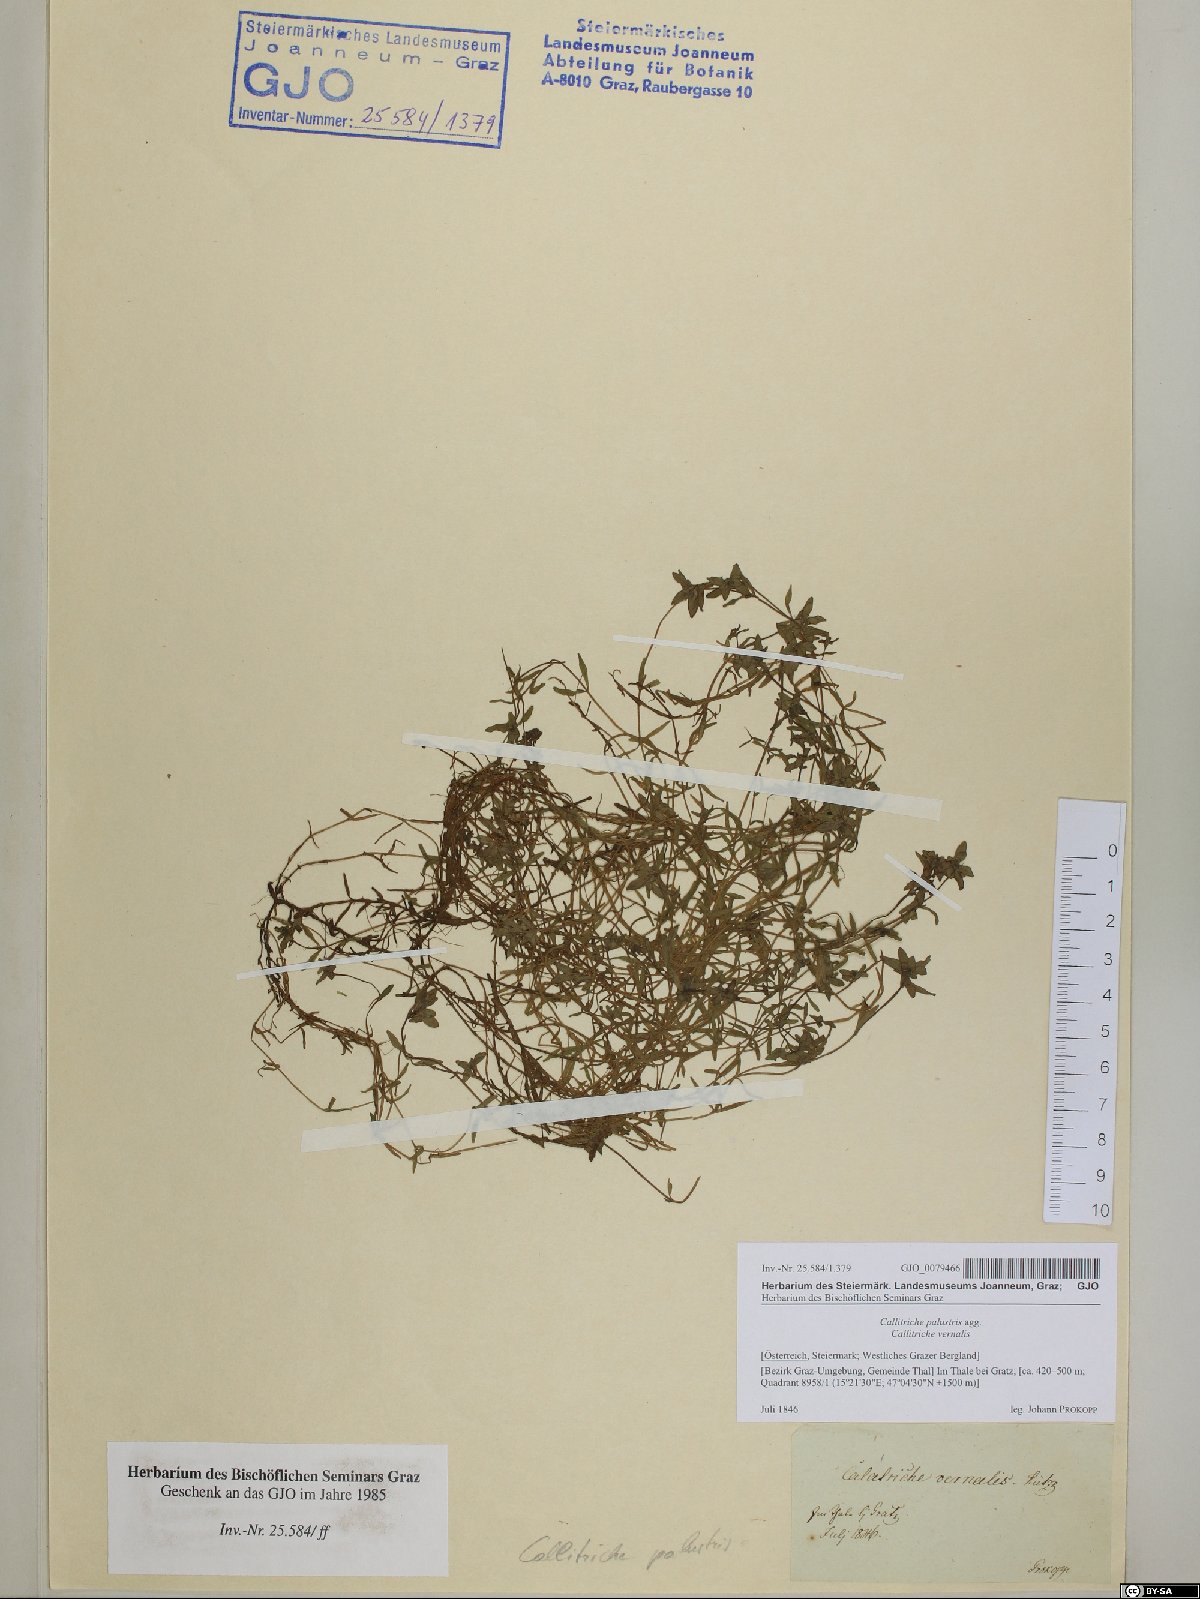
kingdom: Plantae
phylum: Tracheophyta
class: Magnoliopsida
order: Lamiales
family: Plantaginaceae
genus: Callitriche
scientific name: Callitriche palustris
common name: Spring water-starwort
